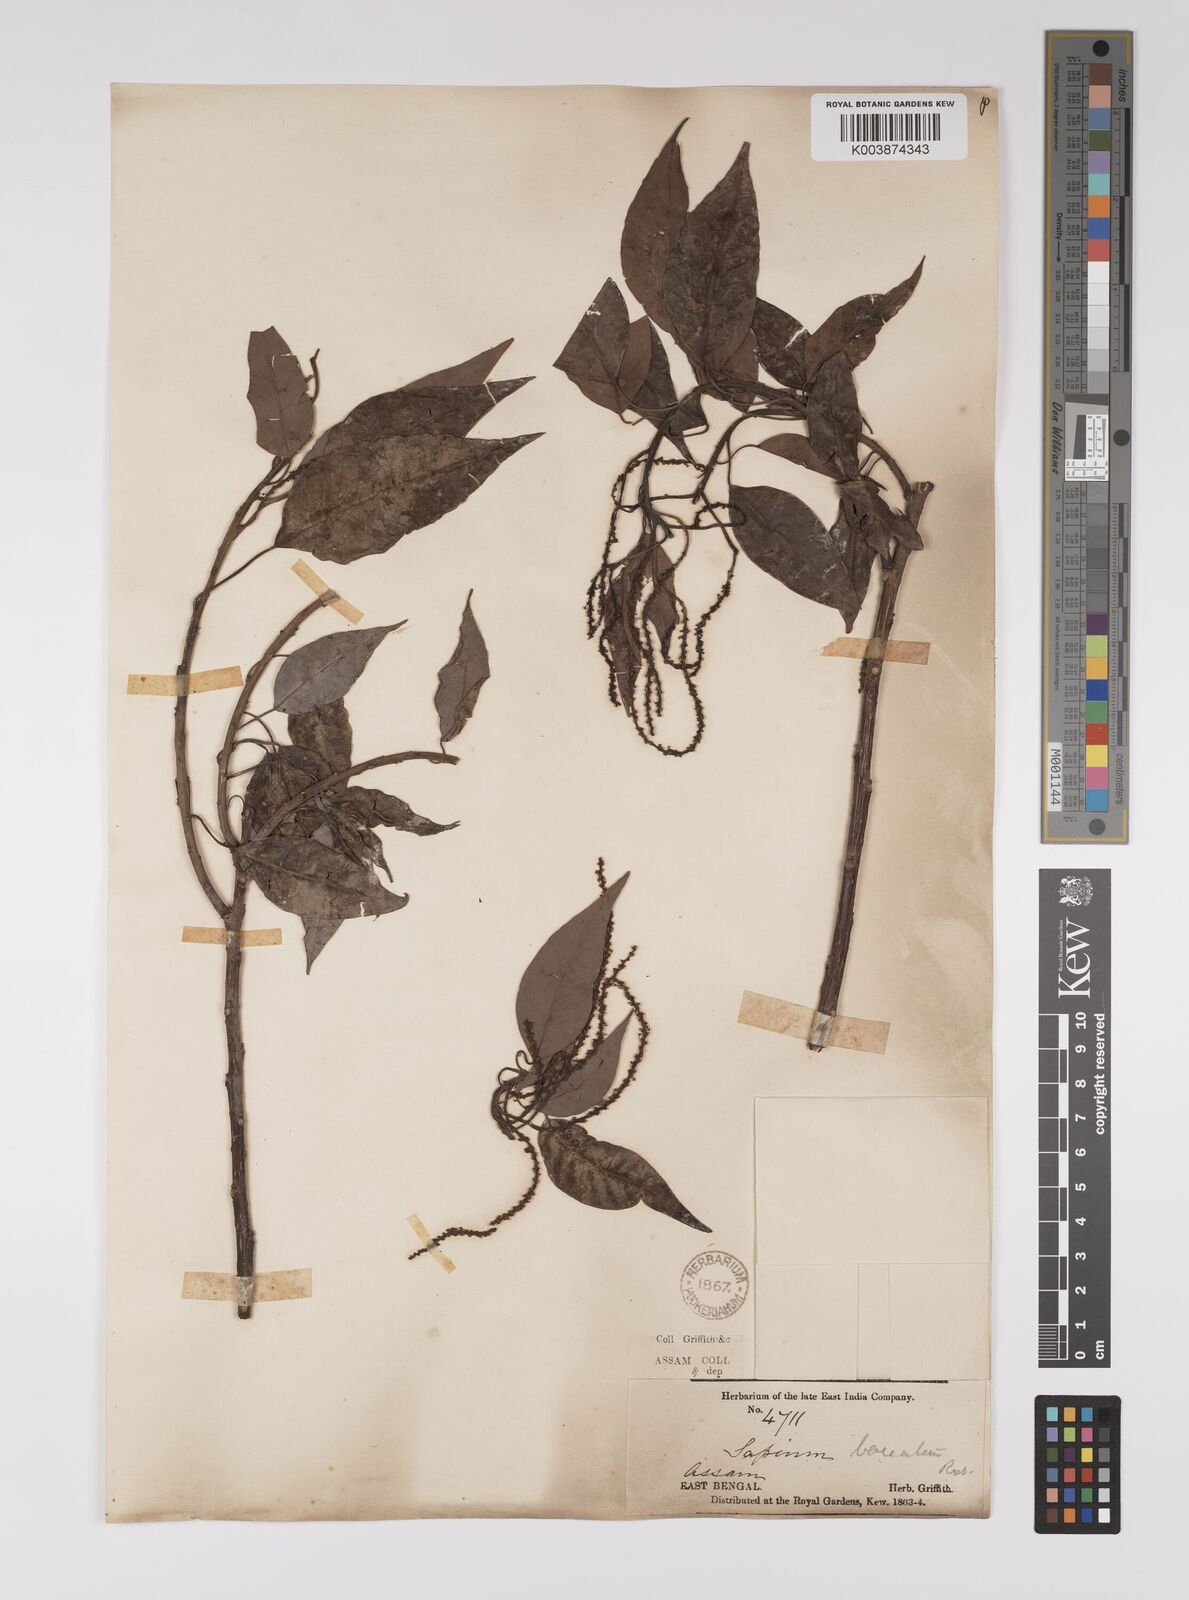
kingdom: Plantae
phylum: Tracheophyta
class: Magnoliopsida
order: Malpighiales
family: Euphorbiaceae
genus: Balakata
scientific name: Balakata baccata
